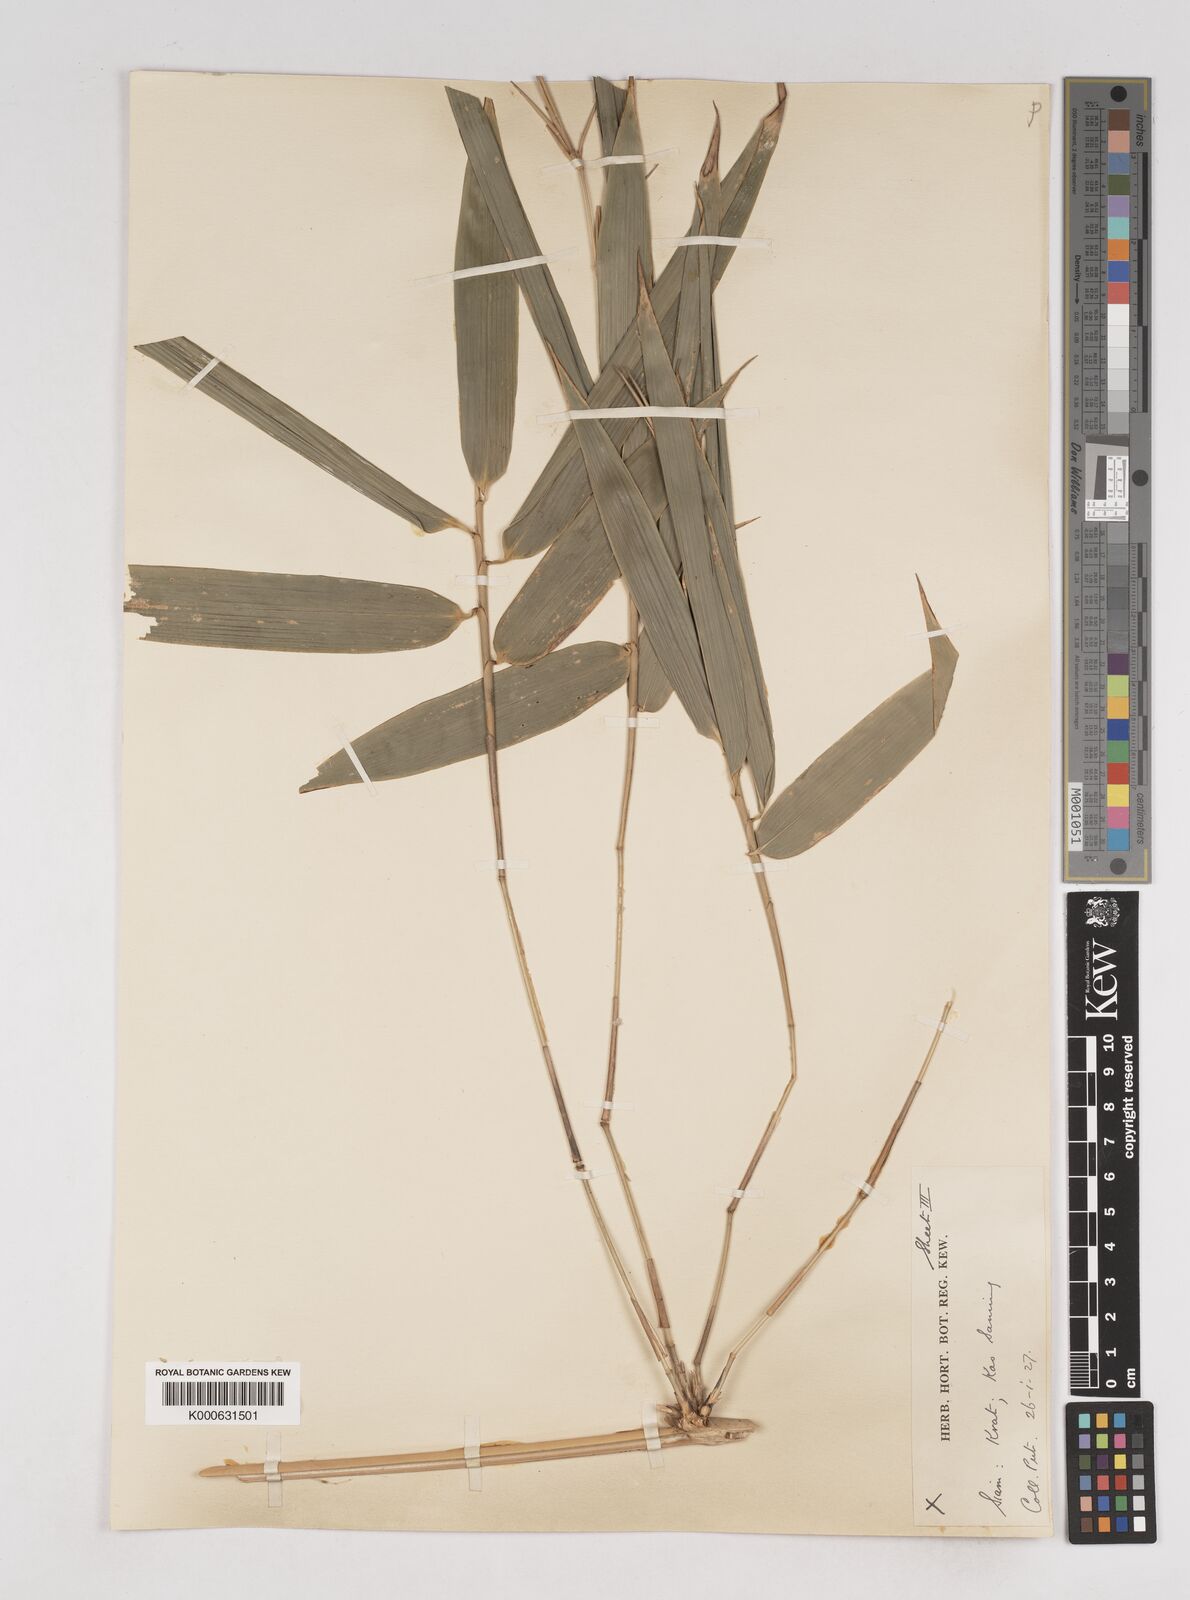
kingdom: Plantae
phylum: Tracheophyta
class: Liliopsida
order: Poales
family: Poaceae
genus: Schizostachyum
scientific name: Schizostachyum
